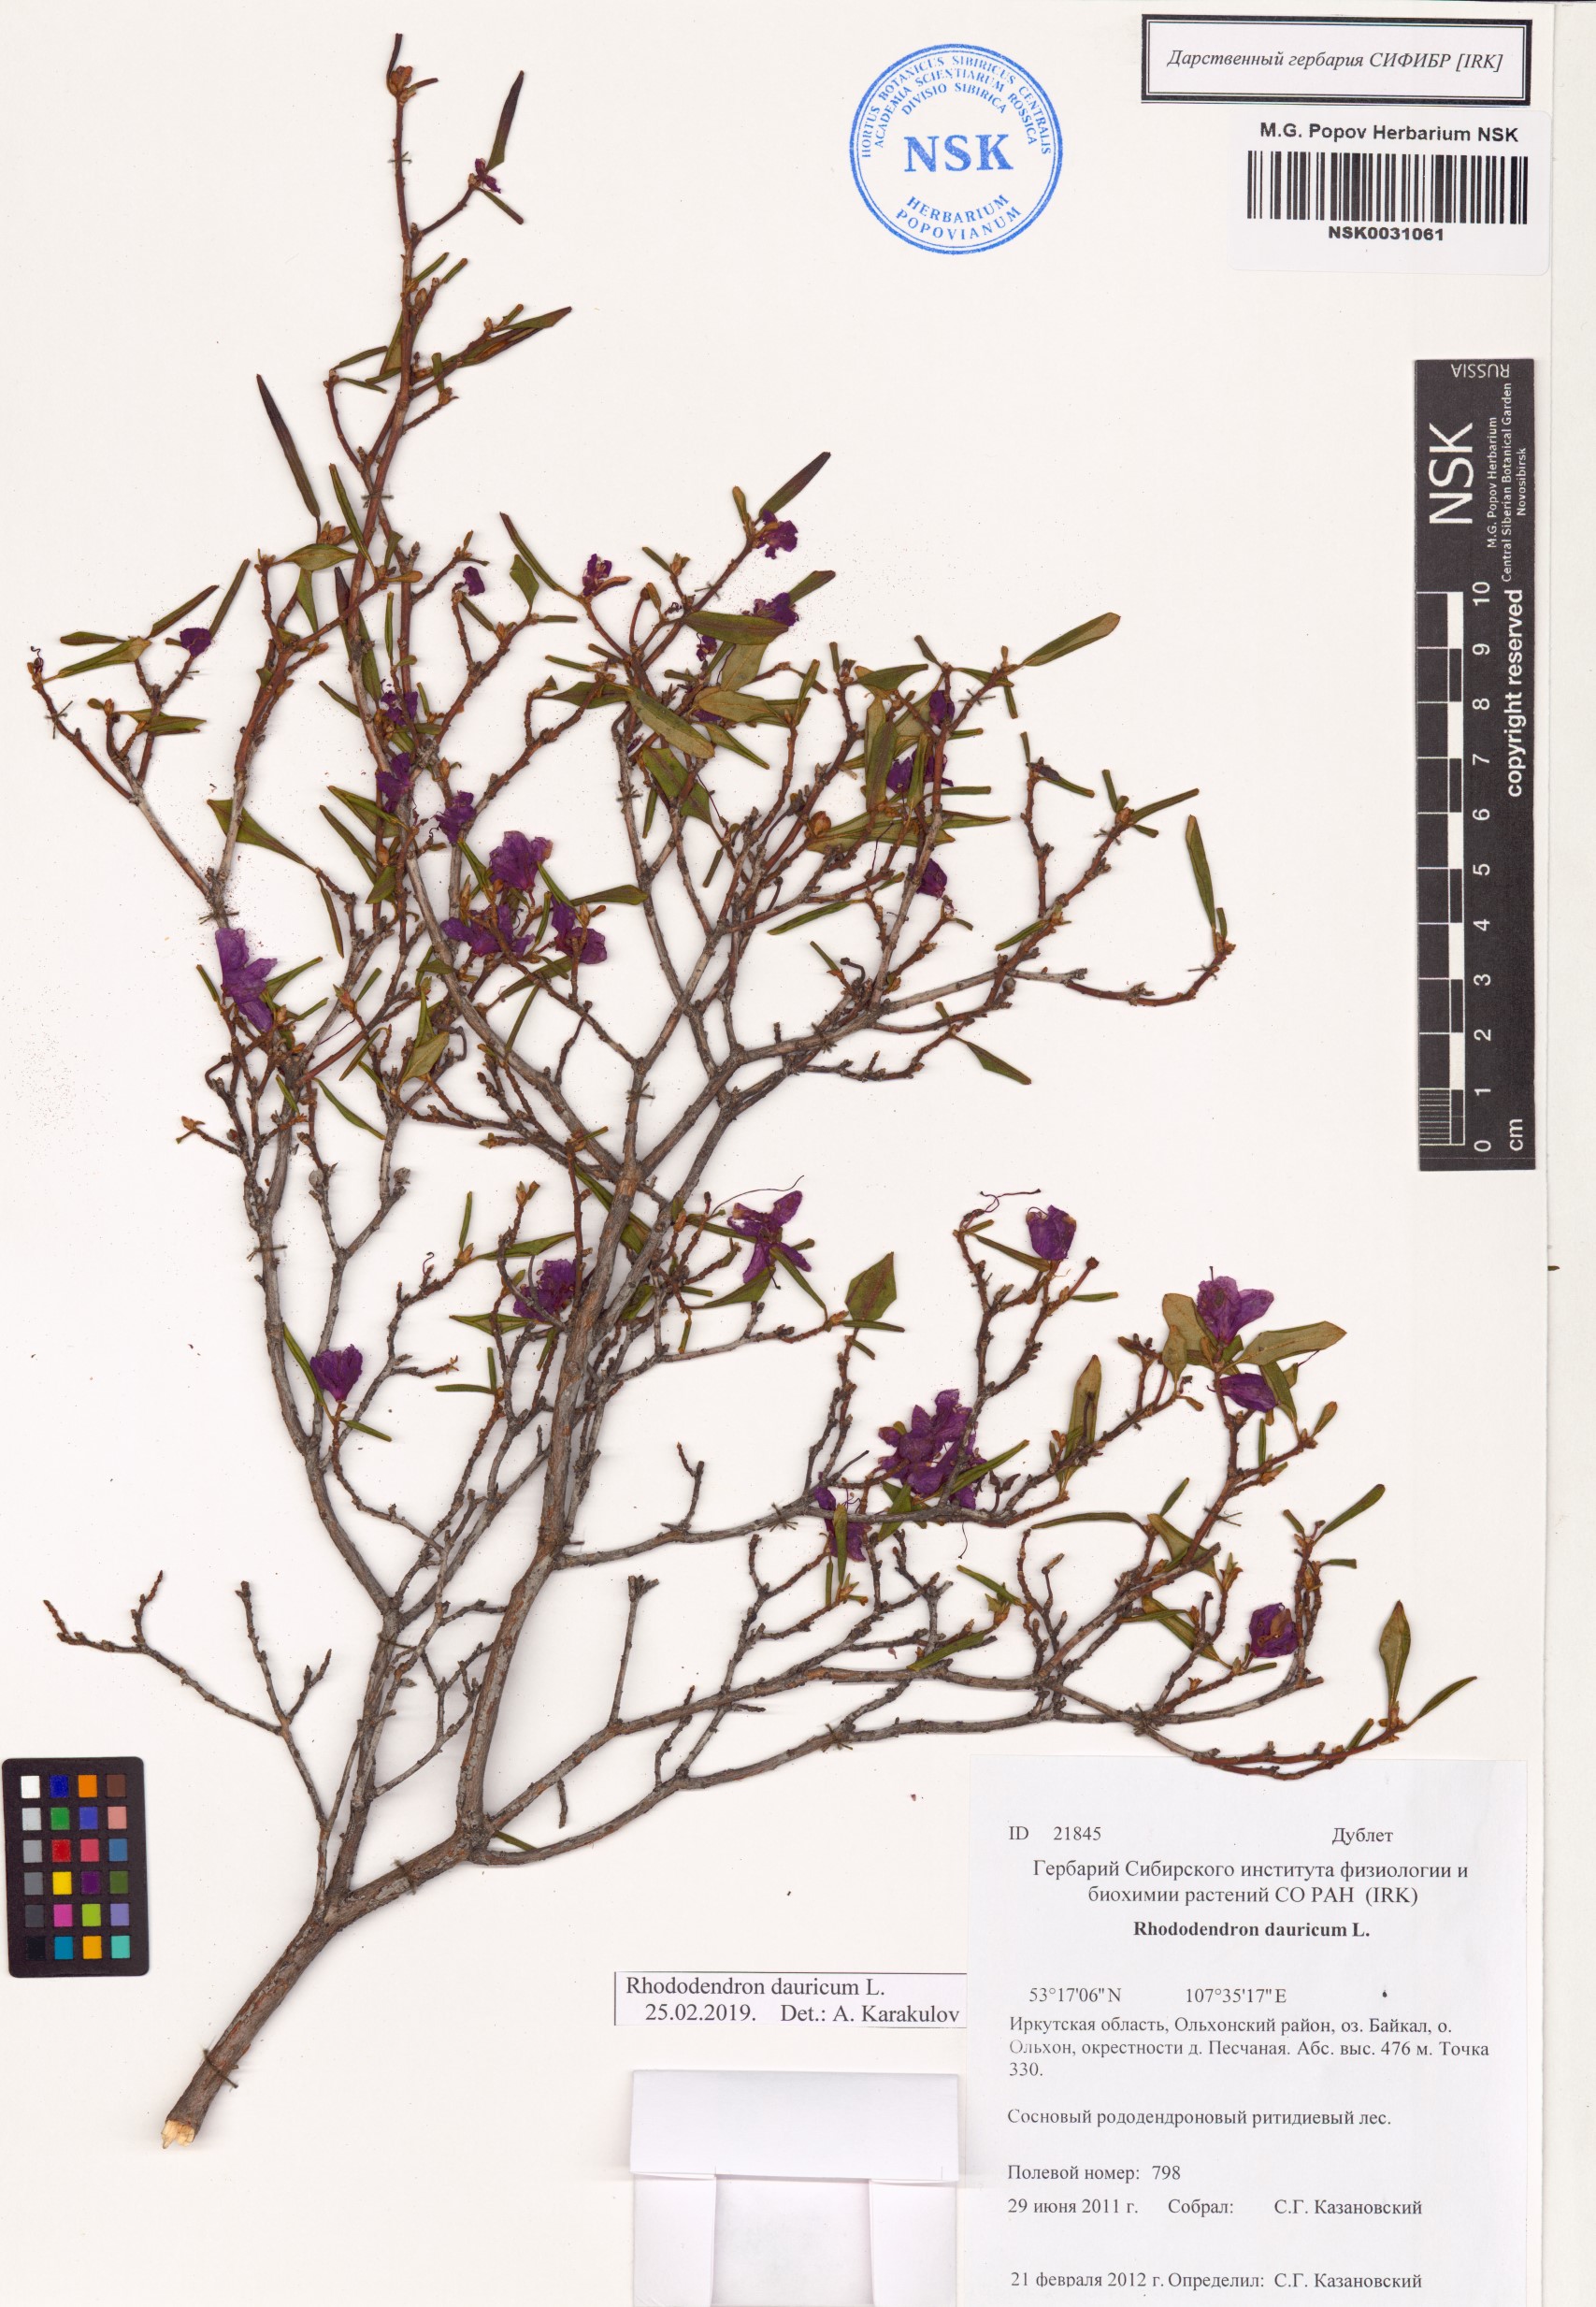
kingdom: Plantae
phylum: Tracheophyta
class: Magnoliopsida
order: Ericales
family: Ericaceae
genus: Rhododendron
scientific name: Rhododendron dauricum
